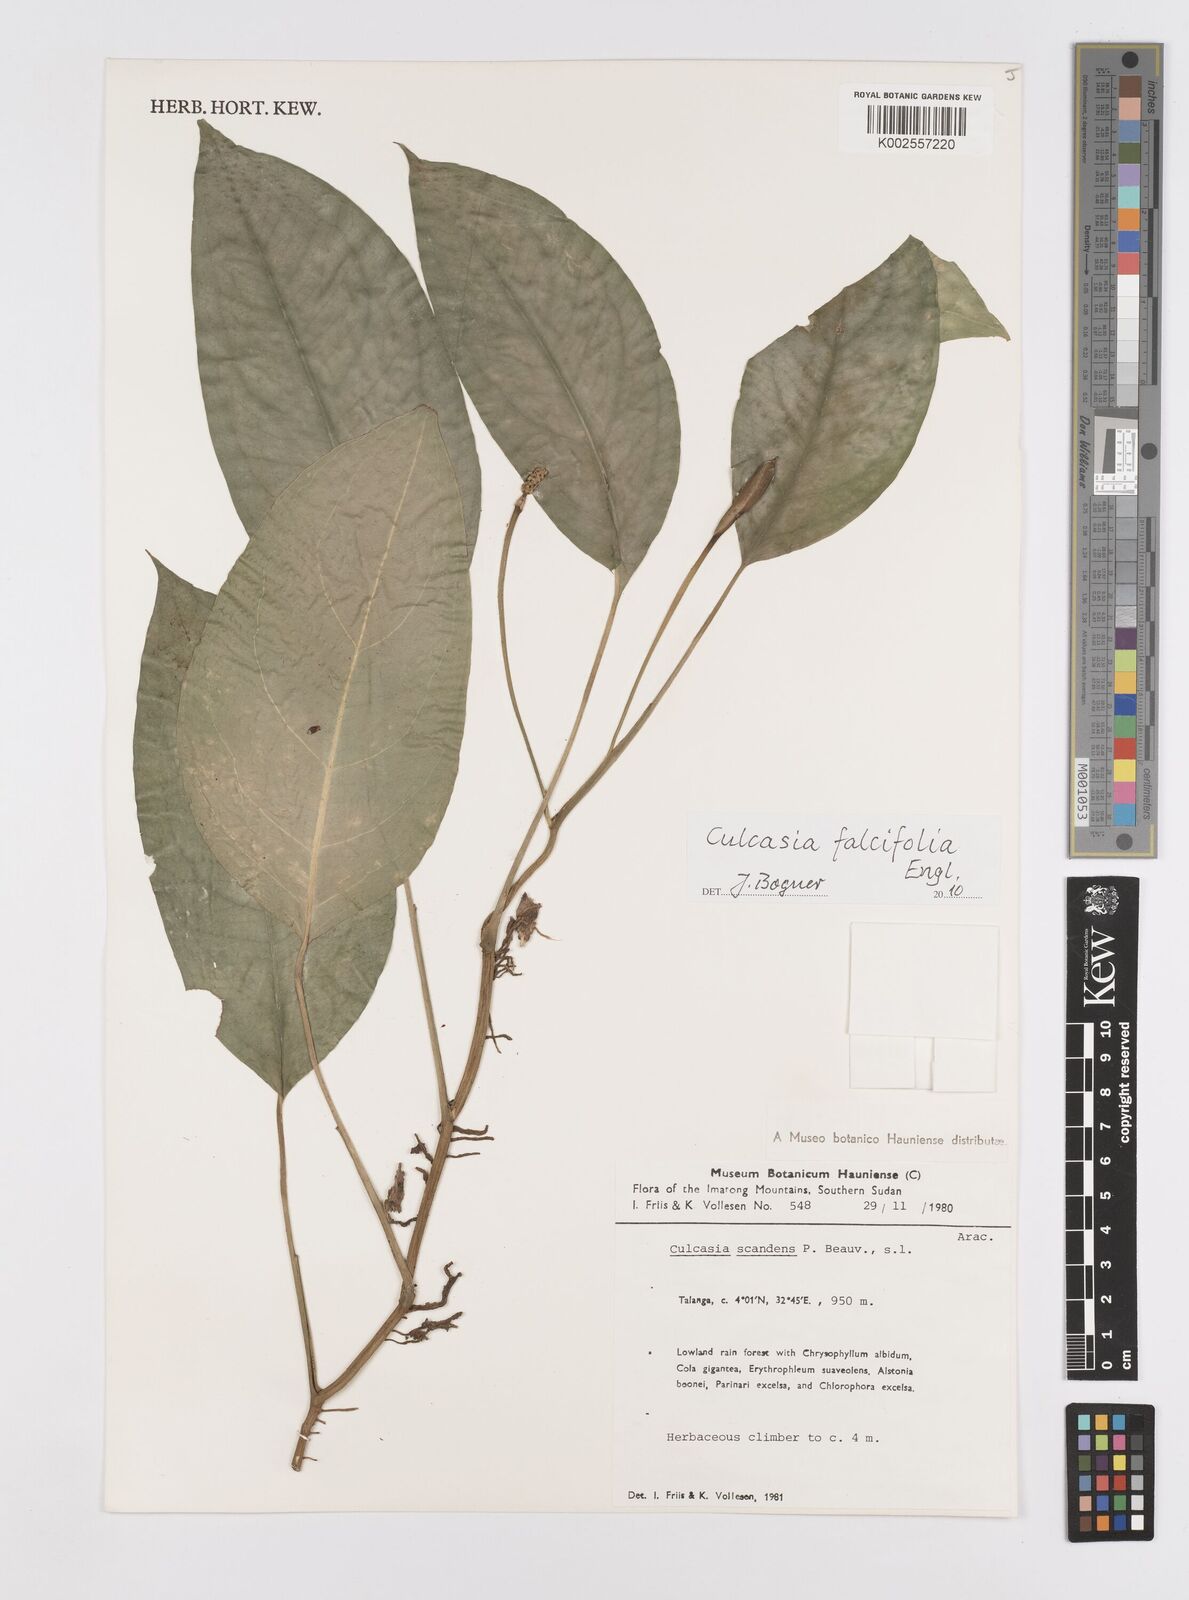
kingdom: Plantae
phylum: Tracheophyta
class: Liliopsida
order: Alismatales
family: Araceae
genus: Culcasia
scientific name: Culcasia falcifolia
